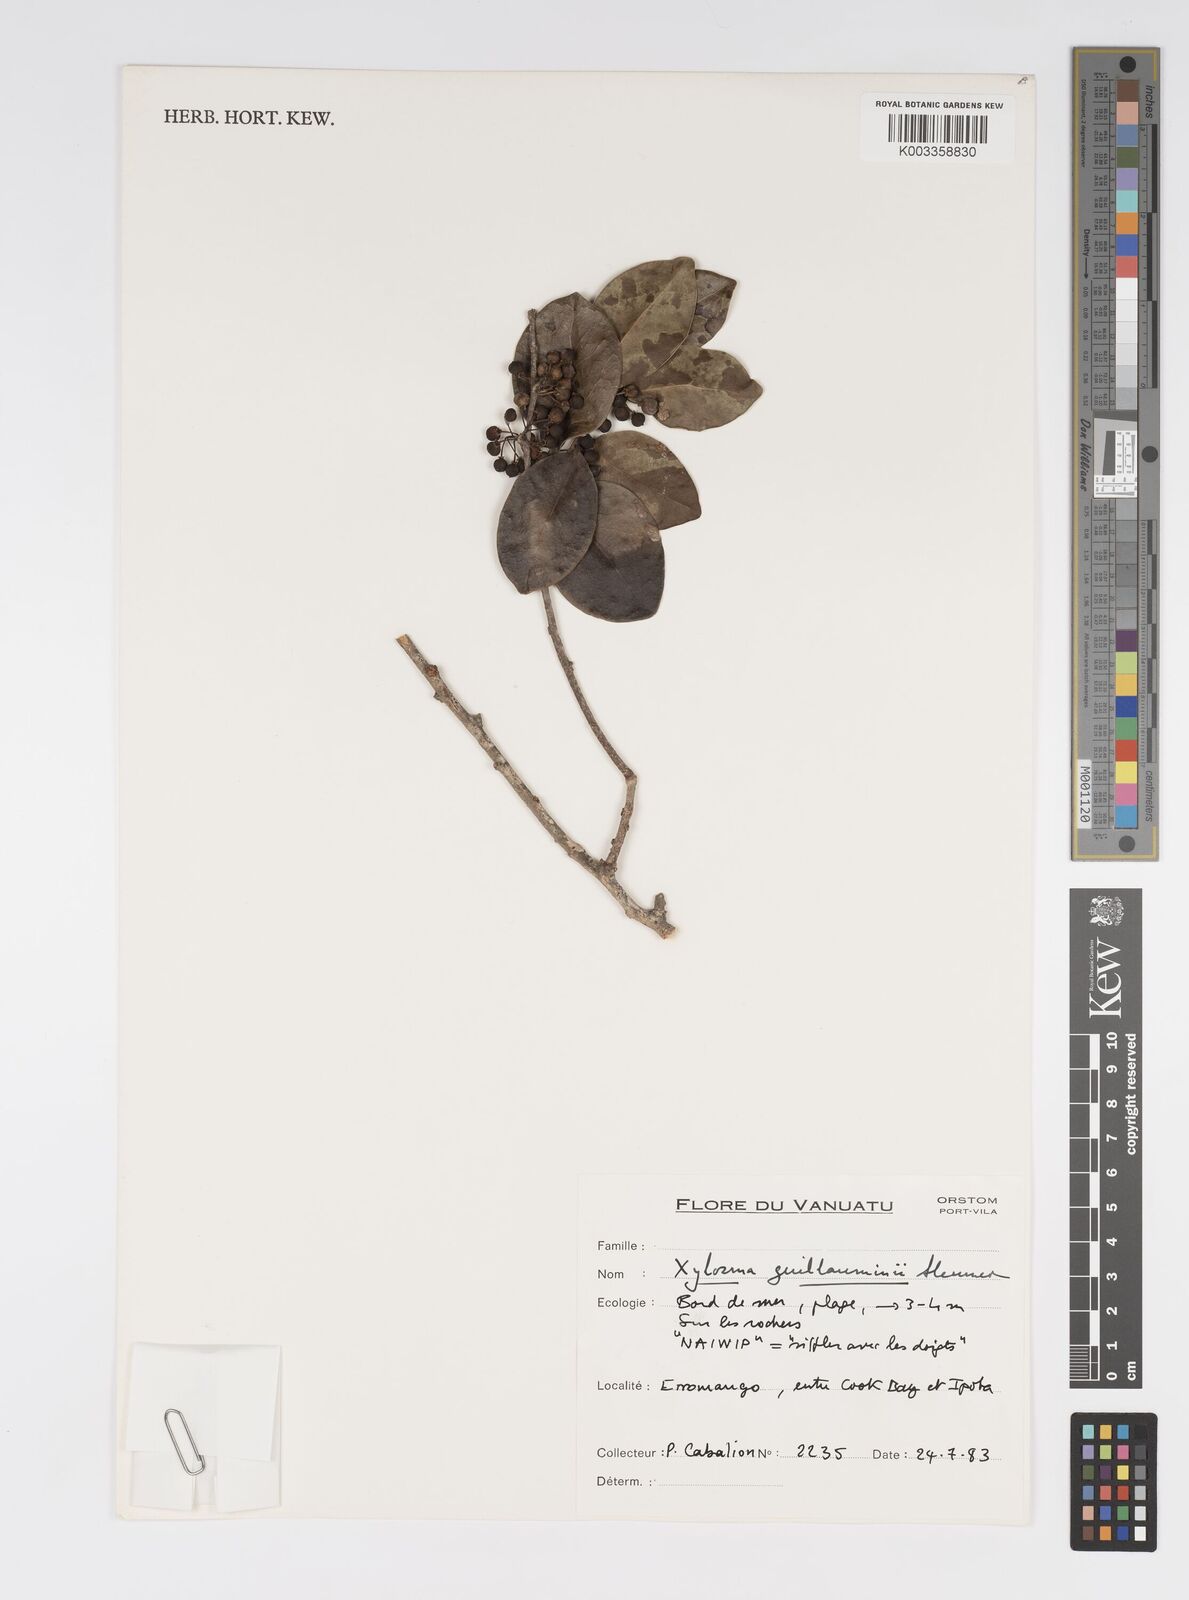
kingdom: Plantae
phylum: Tracheophyta
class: Magnoliopsida
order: Malpighiales
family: Salicaceae
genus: Xylosma
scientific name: Xylosma lifuana
